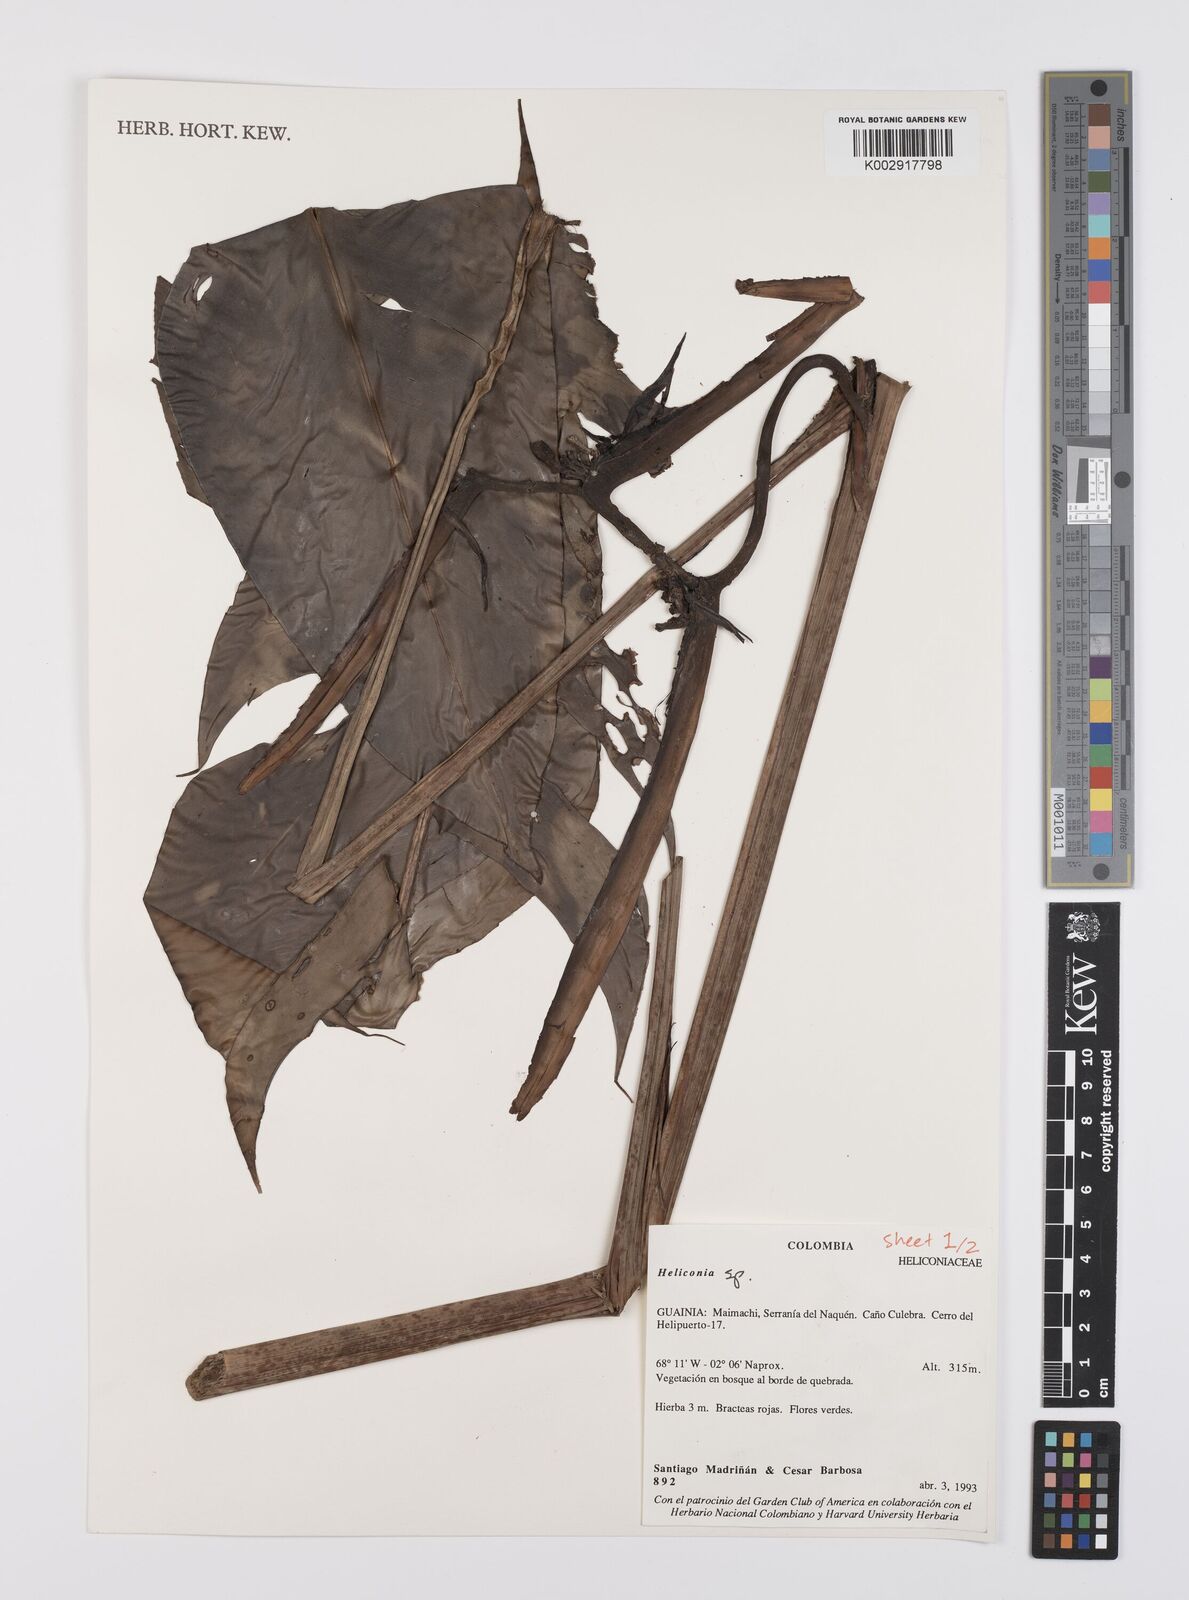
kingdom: Plantae
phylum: Tracheophyta
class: Liliopsida
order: Zingiberales
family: Heliconiaceae
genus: Heliconia
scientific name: Heliconia
